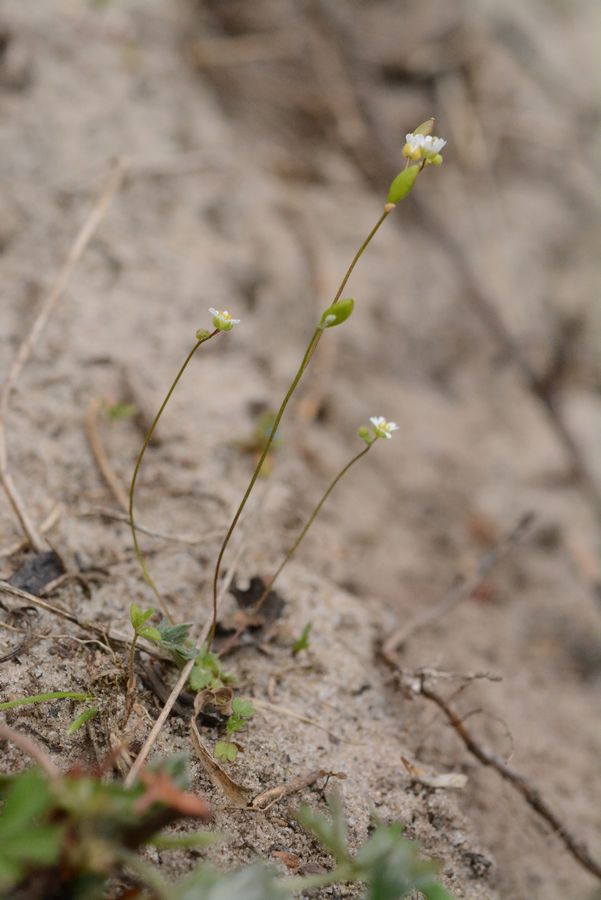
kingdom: Plantae
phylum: Tracheophyta
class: Magnoliopsida
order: Brassicales
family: Brassicaceae
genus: Draba
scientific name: Draba verna
